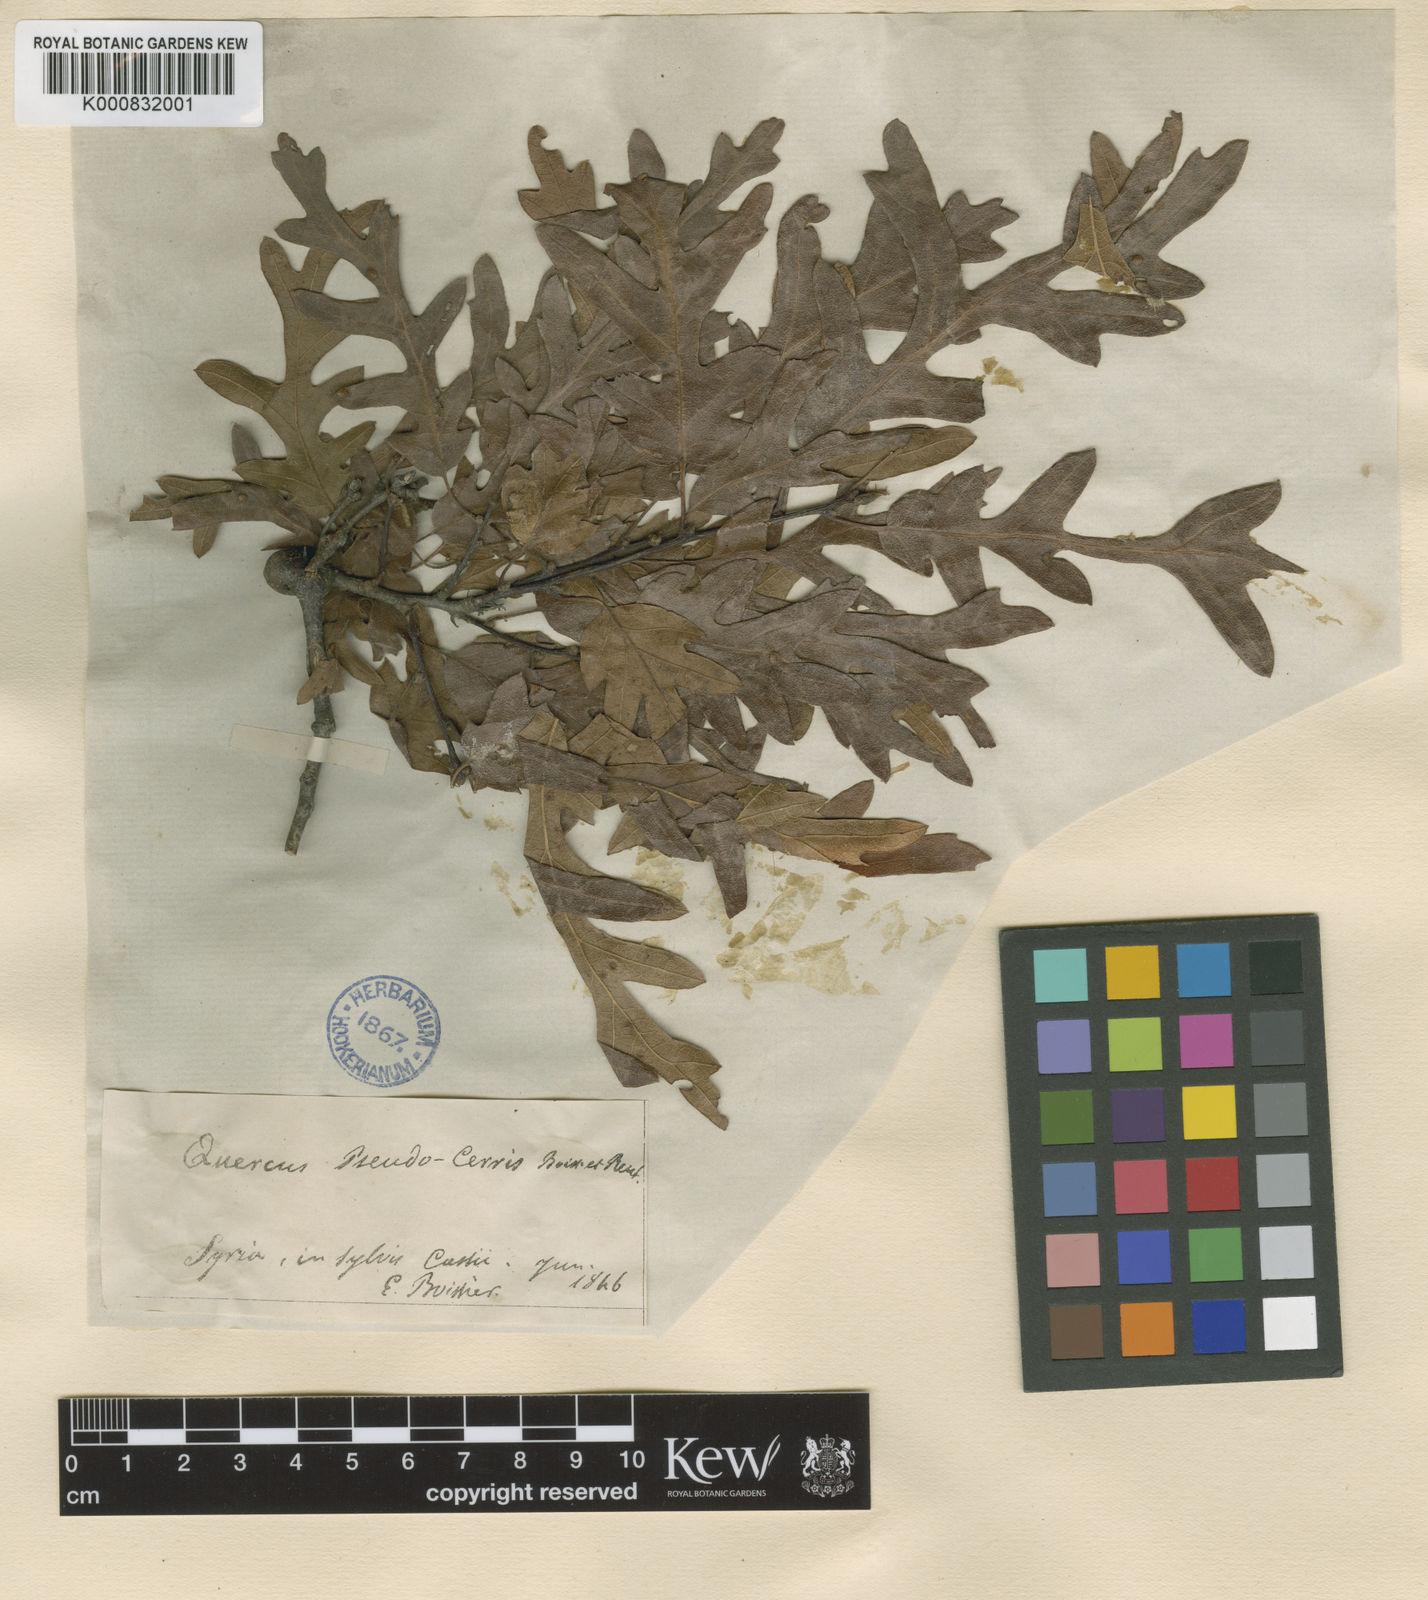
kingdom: Plantae
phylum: Tracheophyta
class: Magnoliopsida
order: Fagales
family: Fagaceae
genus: Quercus
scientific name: Quercus cerris
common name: Turkey oak
